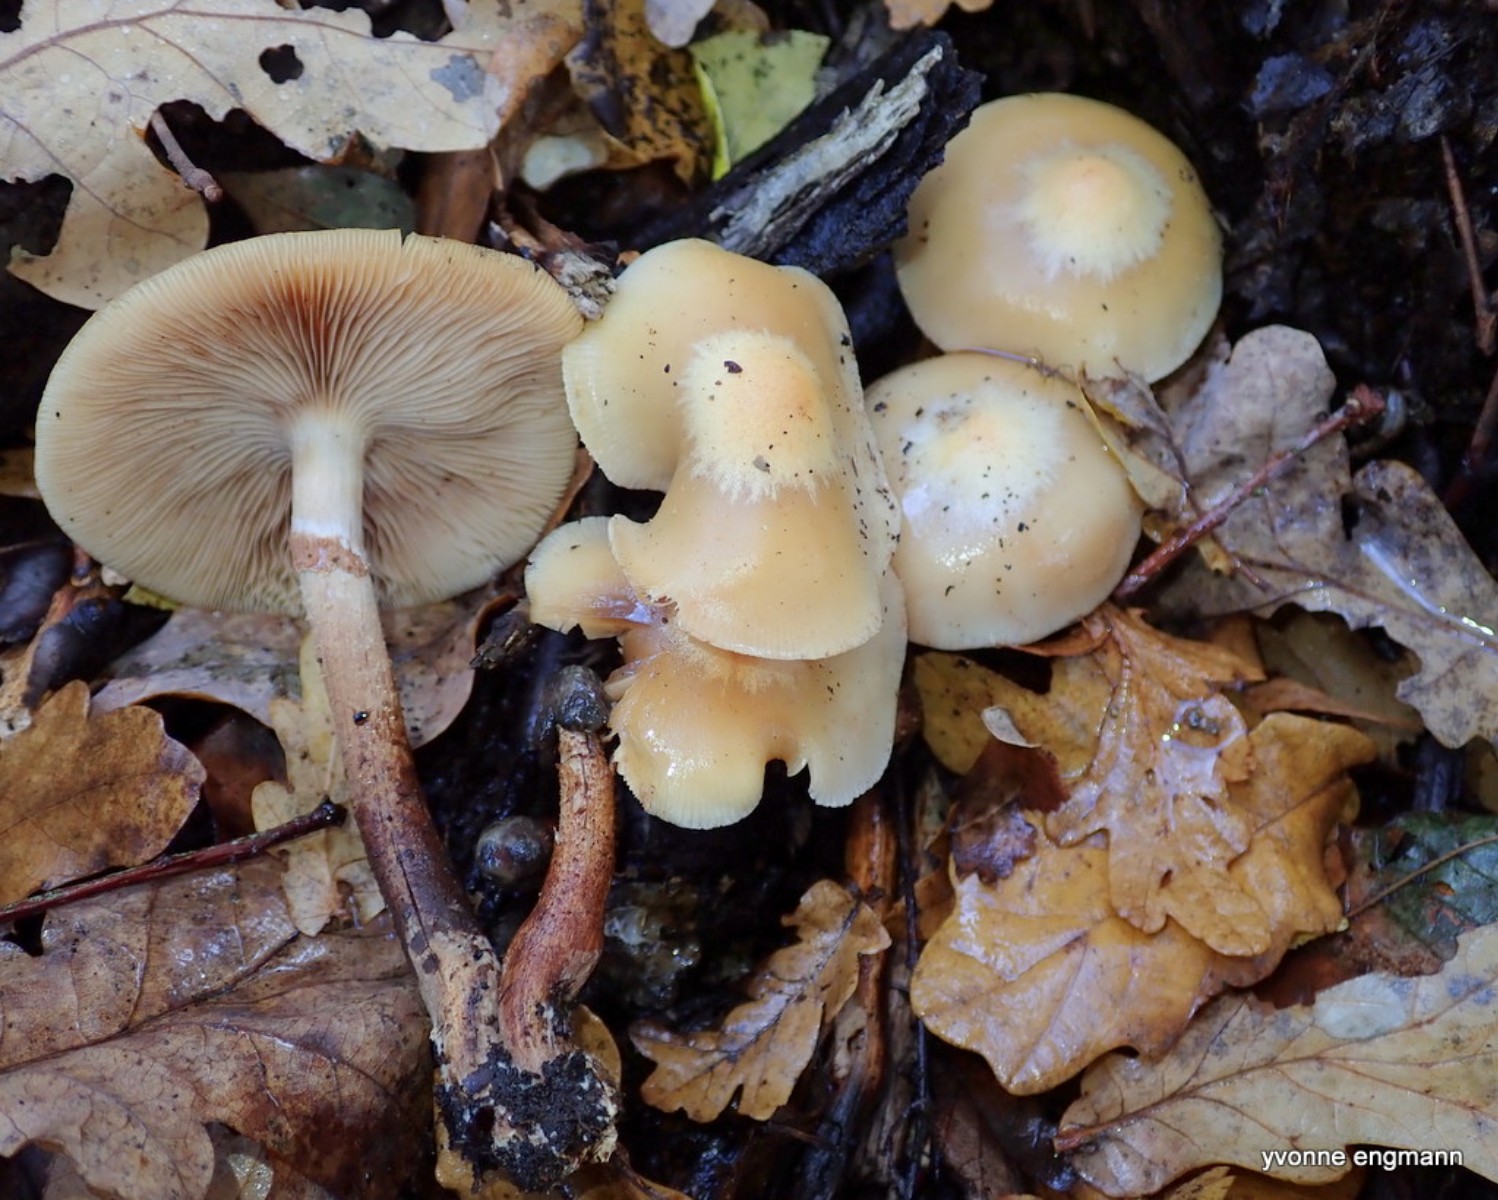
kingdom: Fungi
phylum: Basidiomycota
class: Agaricomycetes
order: Agaricales
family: Strophariaceae
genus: Kuehneromyces
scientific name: Kuehneromyces mutabilis
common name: foranderlig skælhat
